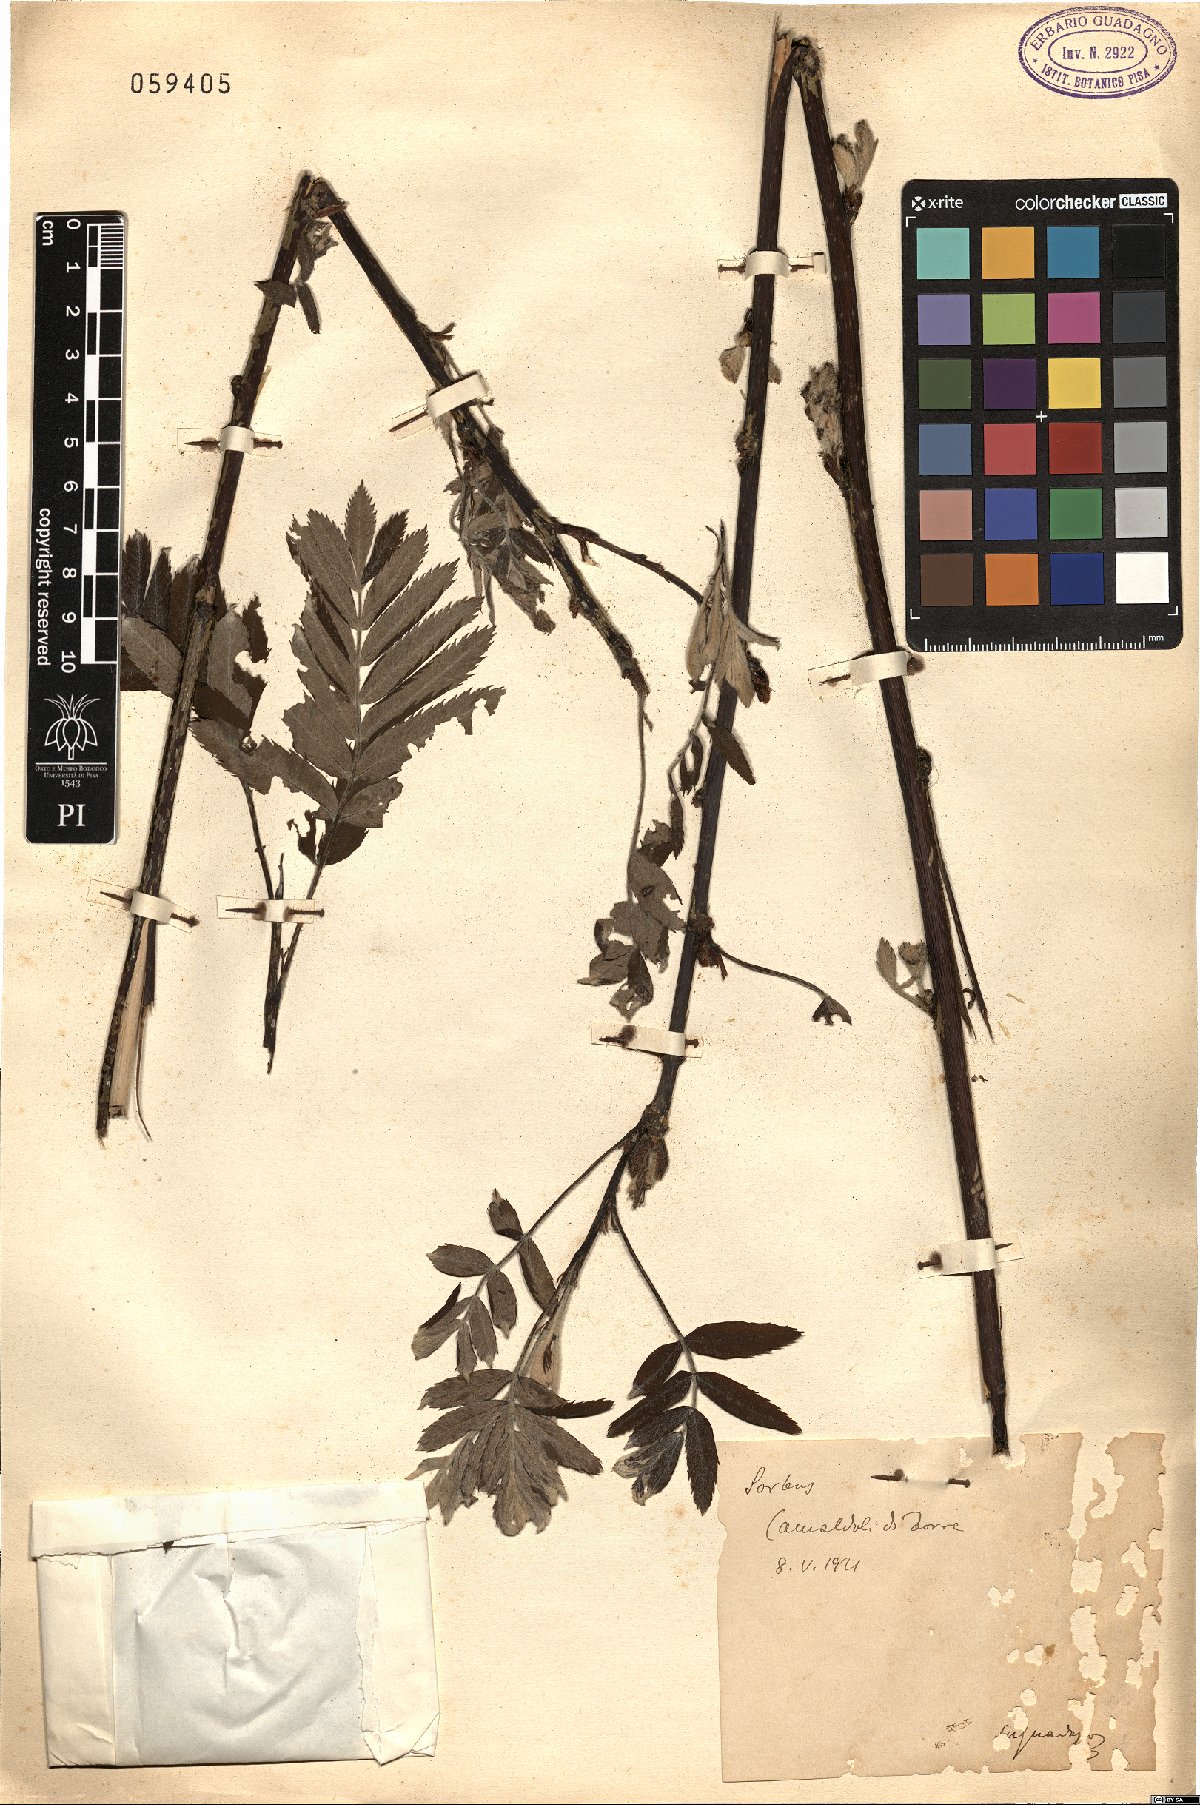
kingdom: Plantae
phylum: Tracheophyta
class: Magnoliopsida
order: Rosales
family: Rosaceae
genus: Sorbus
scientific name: Sorbus
